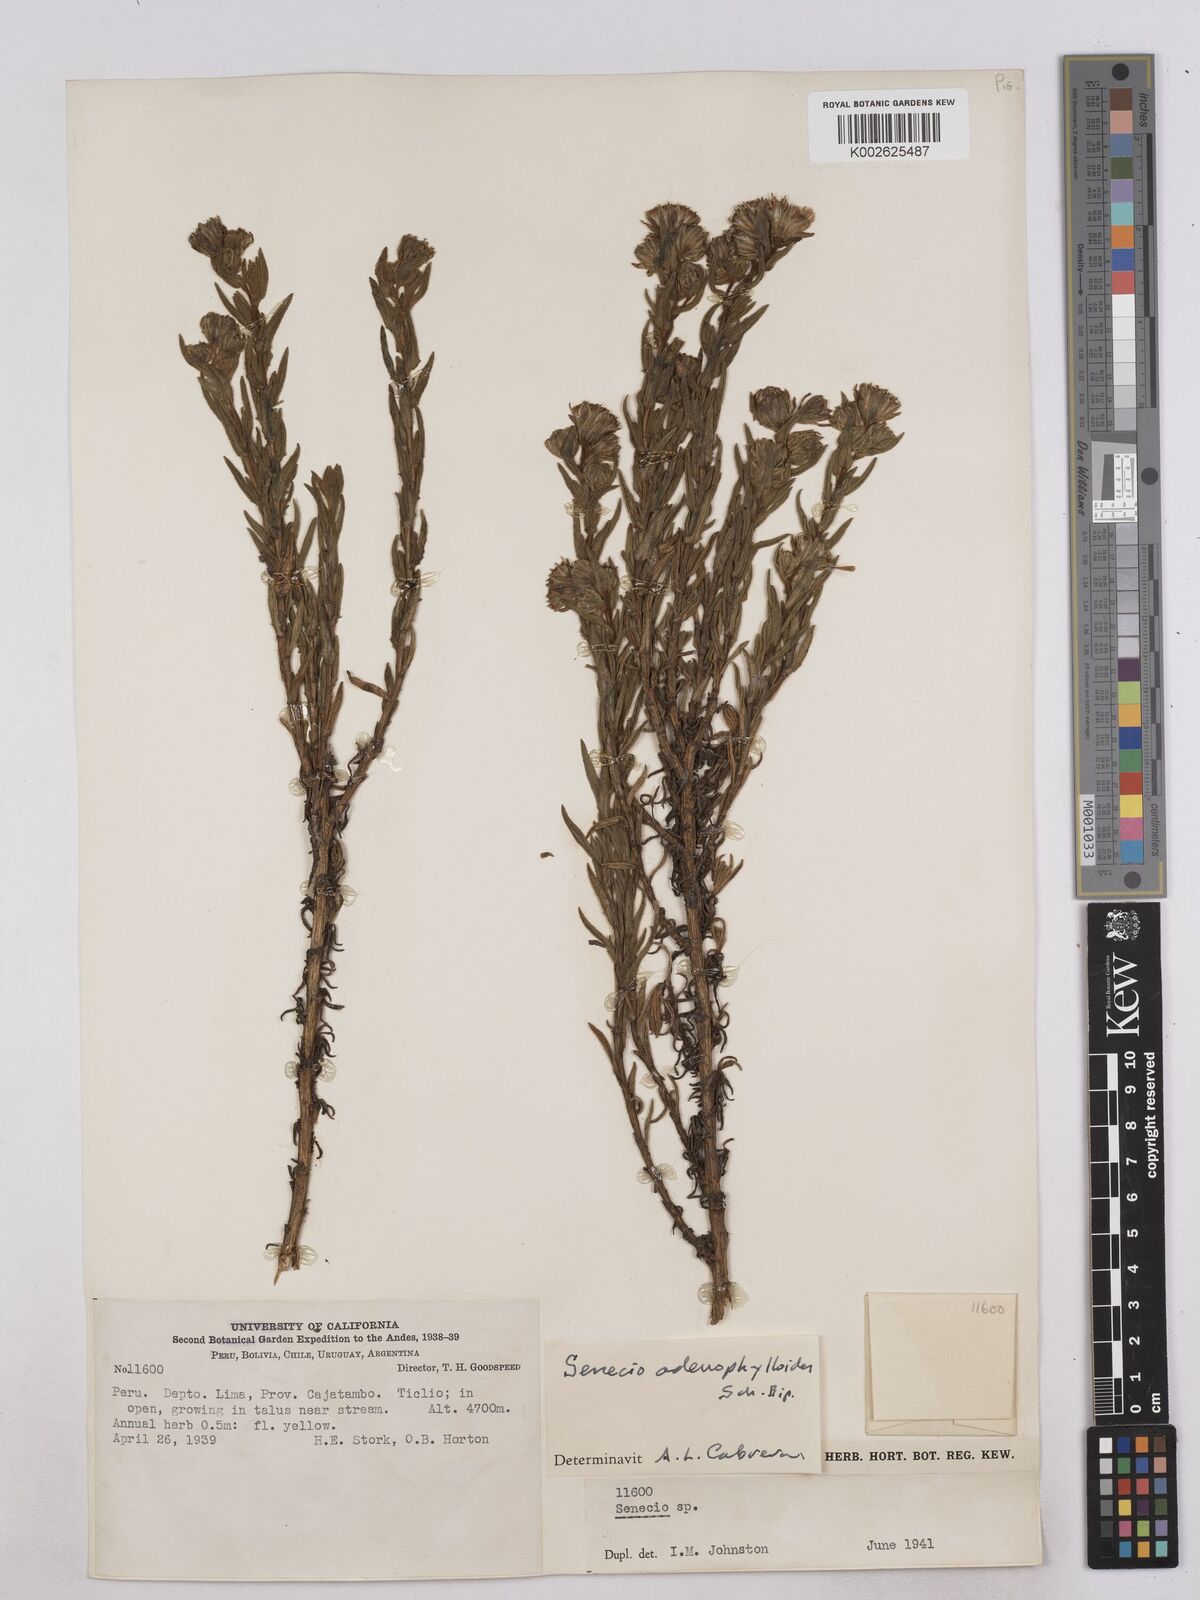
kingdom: Plantae
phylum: Tracheophyta
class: Magnoliopsida
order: Asterales
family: Asteraceae
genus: Senecio
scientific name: Senecio rufescens
